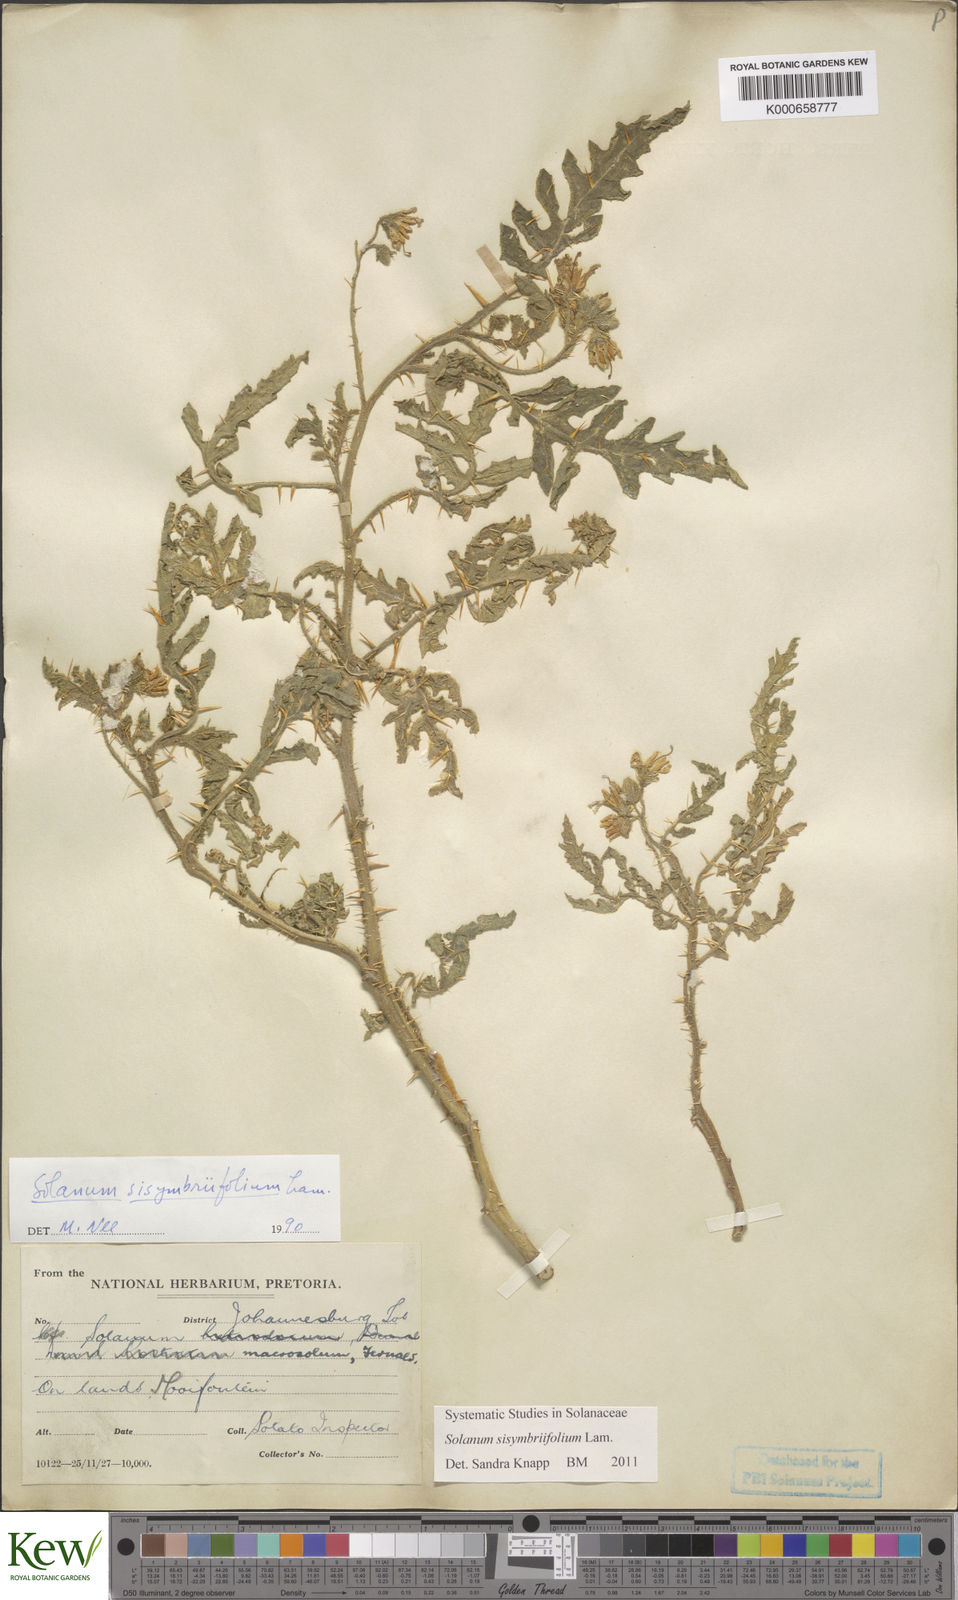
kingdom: Plantae
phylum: Tracheophyta
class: Magnoliopsida
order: Solanales
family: Solanaceae
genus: Solanum
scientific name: Solanum sisymbriifolium
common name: Red buffalo-bur
